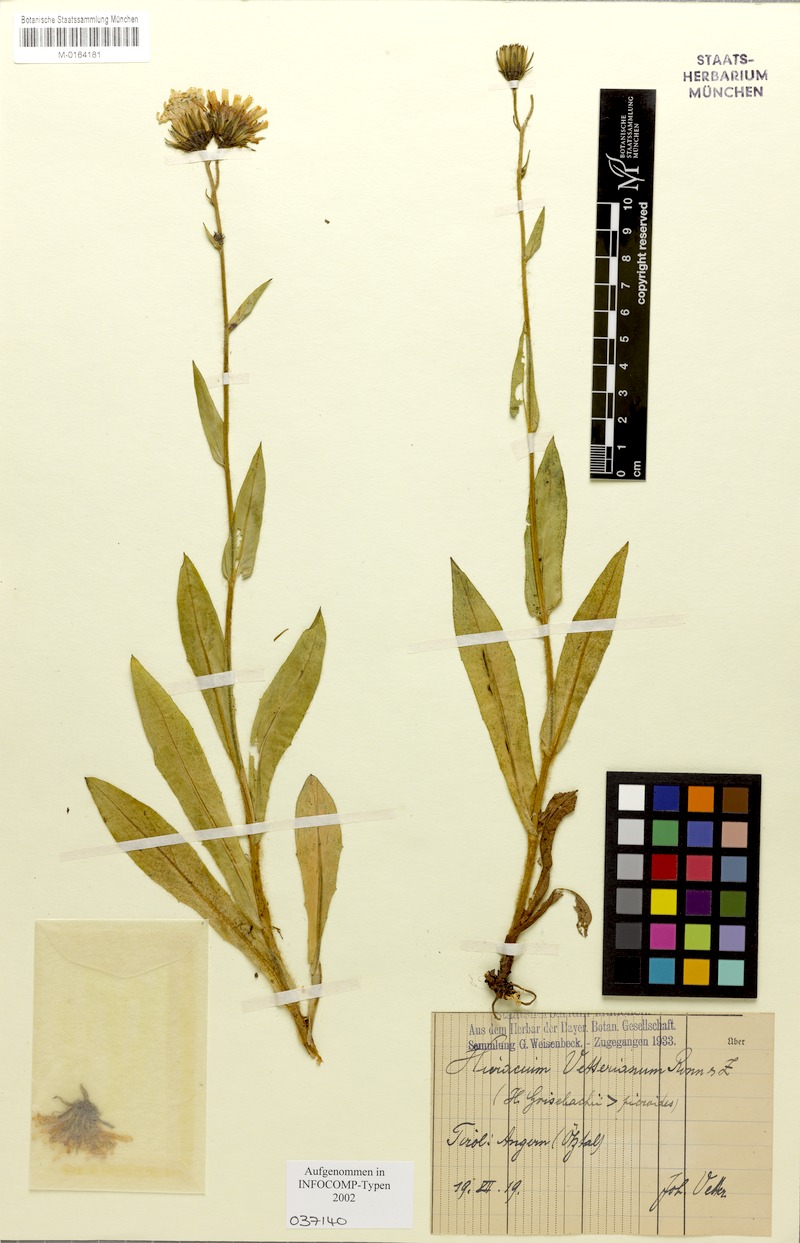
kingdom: Plantae
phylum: Tracheophyta
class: Magnoliopsida
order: Asterales
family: Asteraceae
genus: Hieracium
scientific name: Hieracium vetteri
